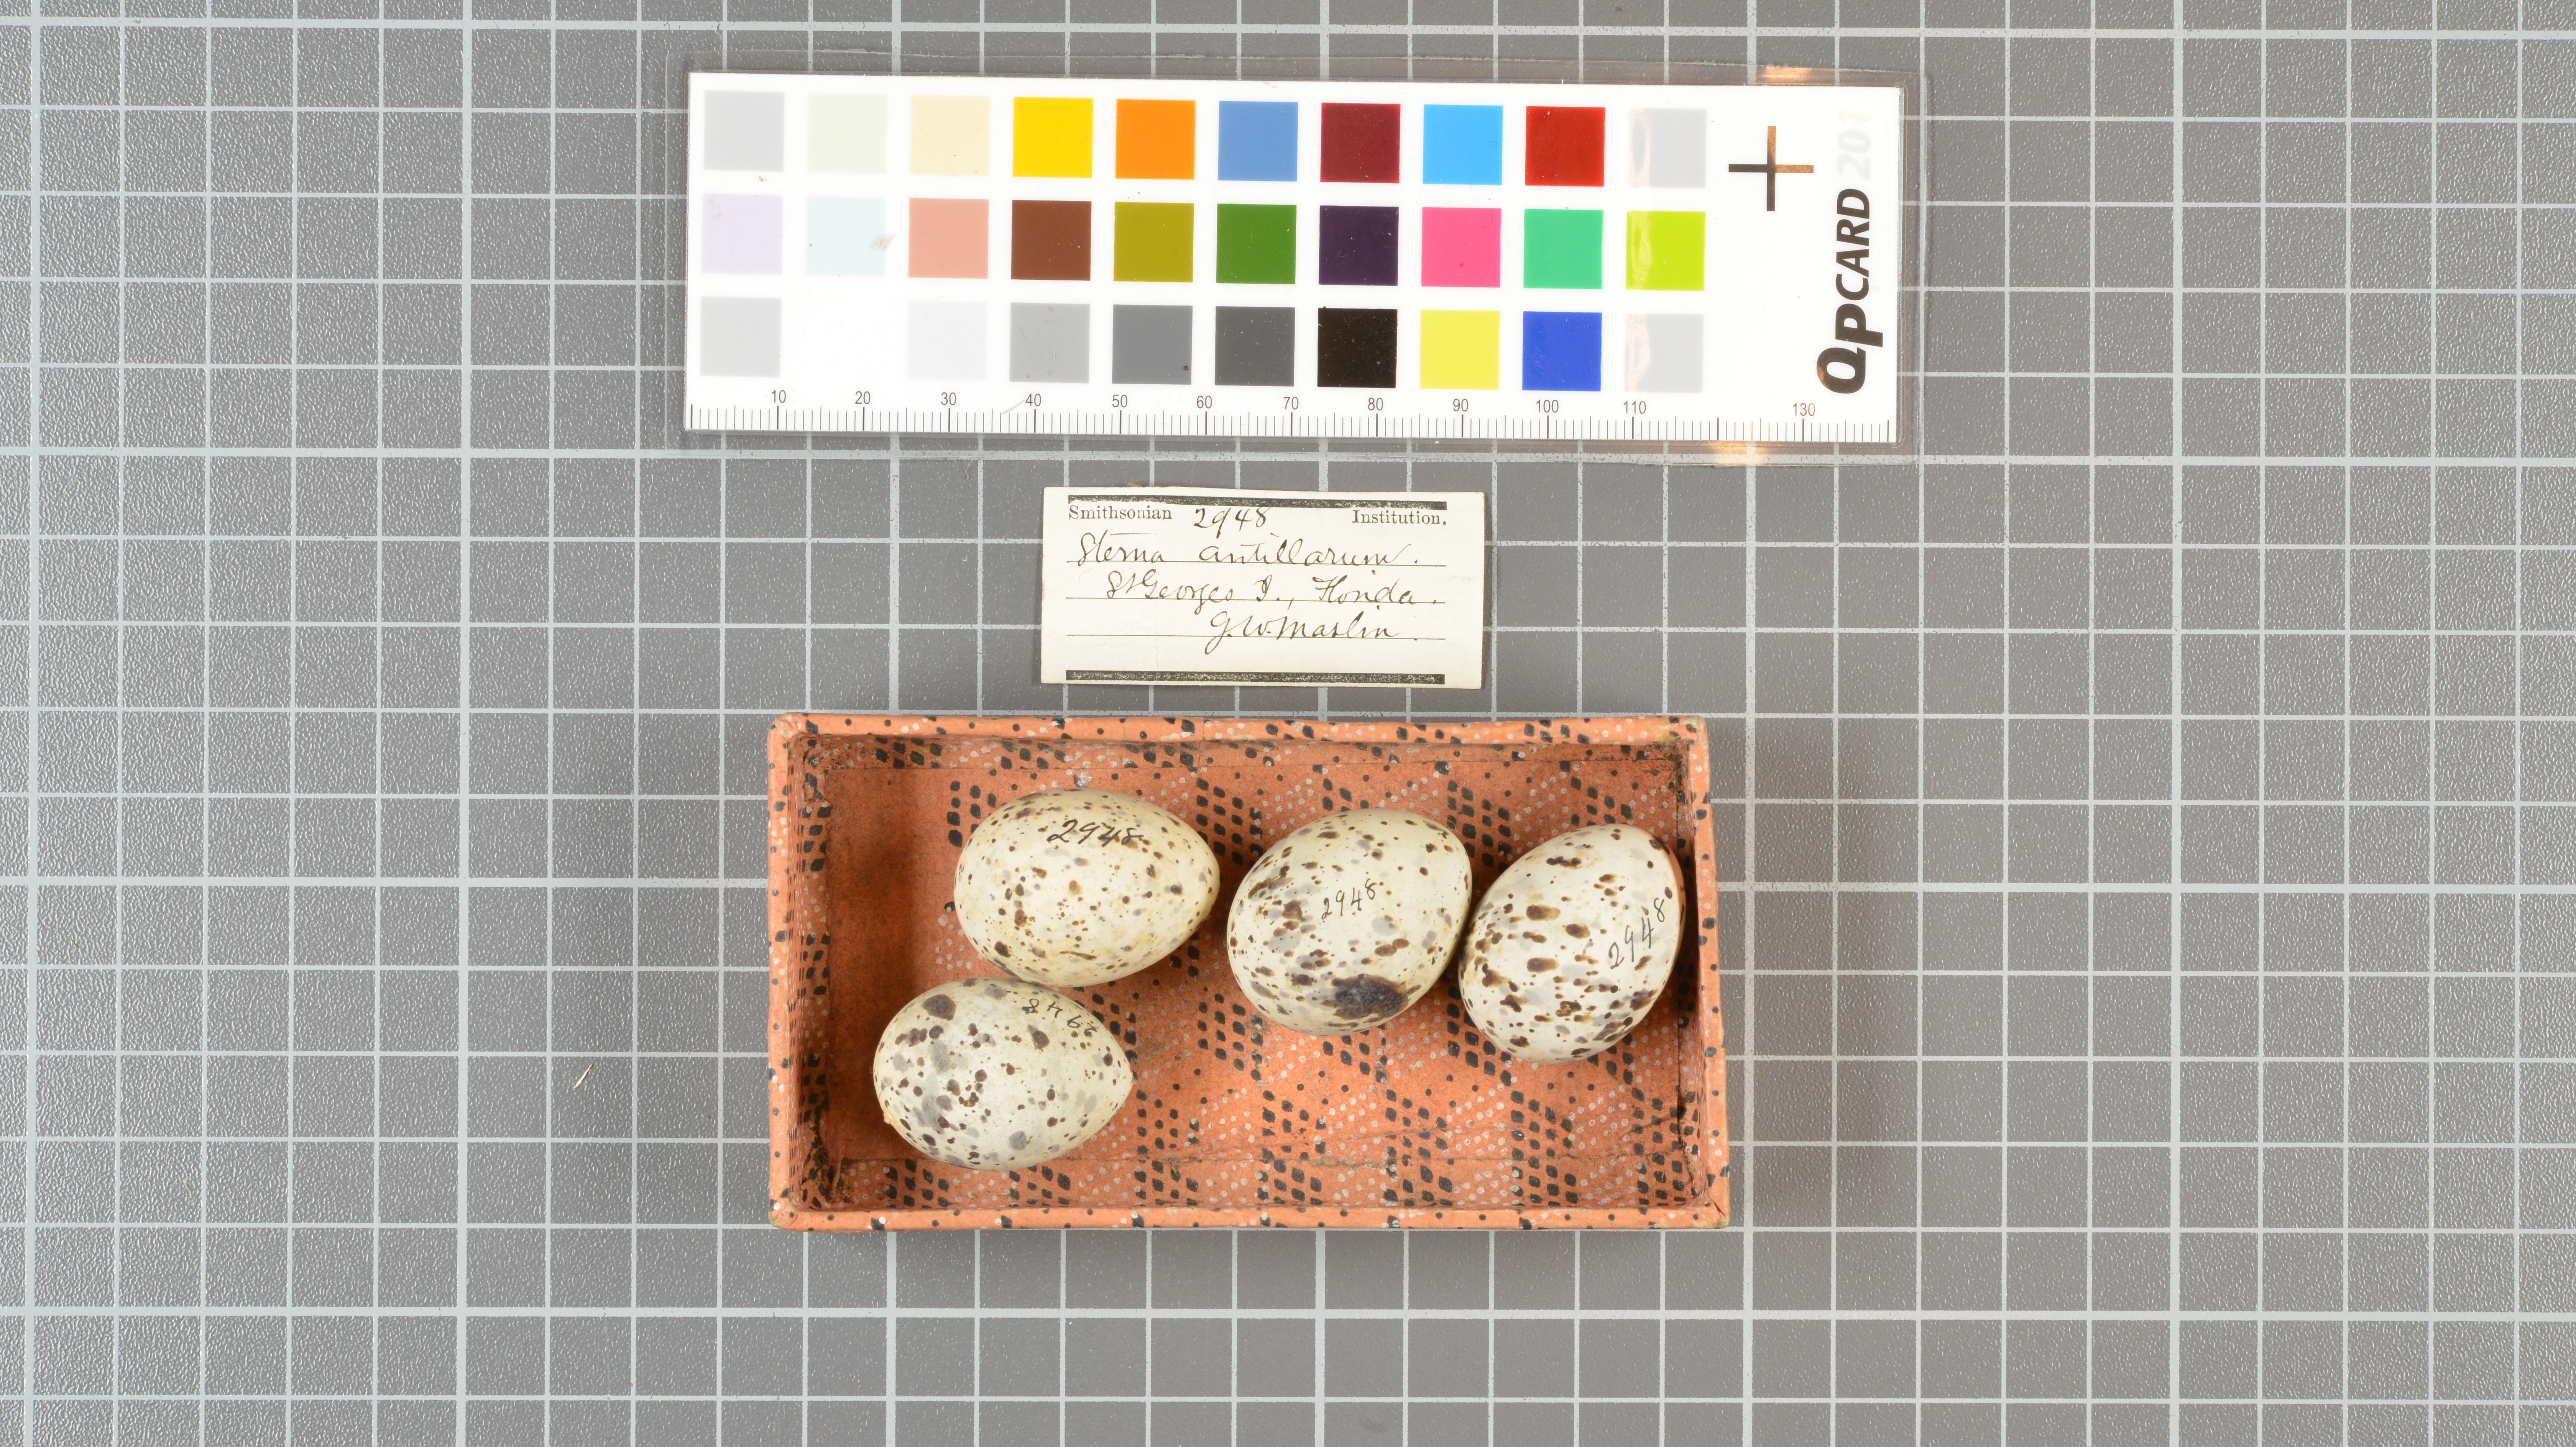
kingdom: Animalia
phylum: Chordata
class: Aves
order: Charadriiformes
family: Laridae
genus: Sternula
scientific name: Sternula antillarum
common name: Least tern
